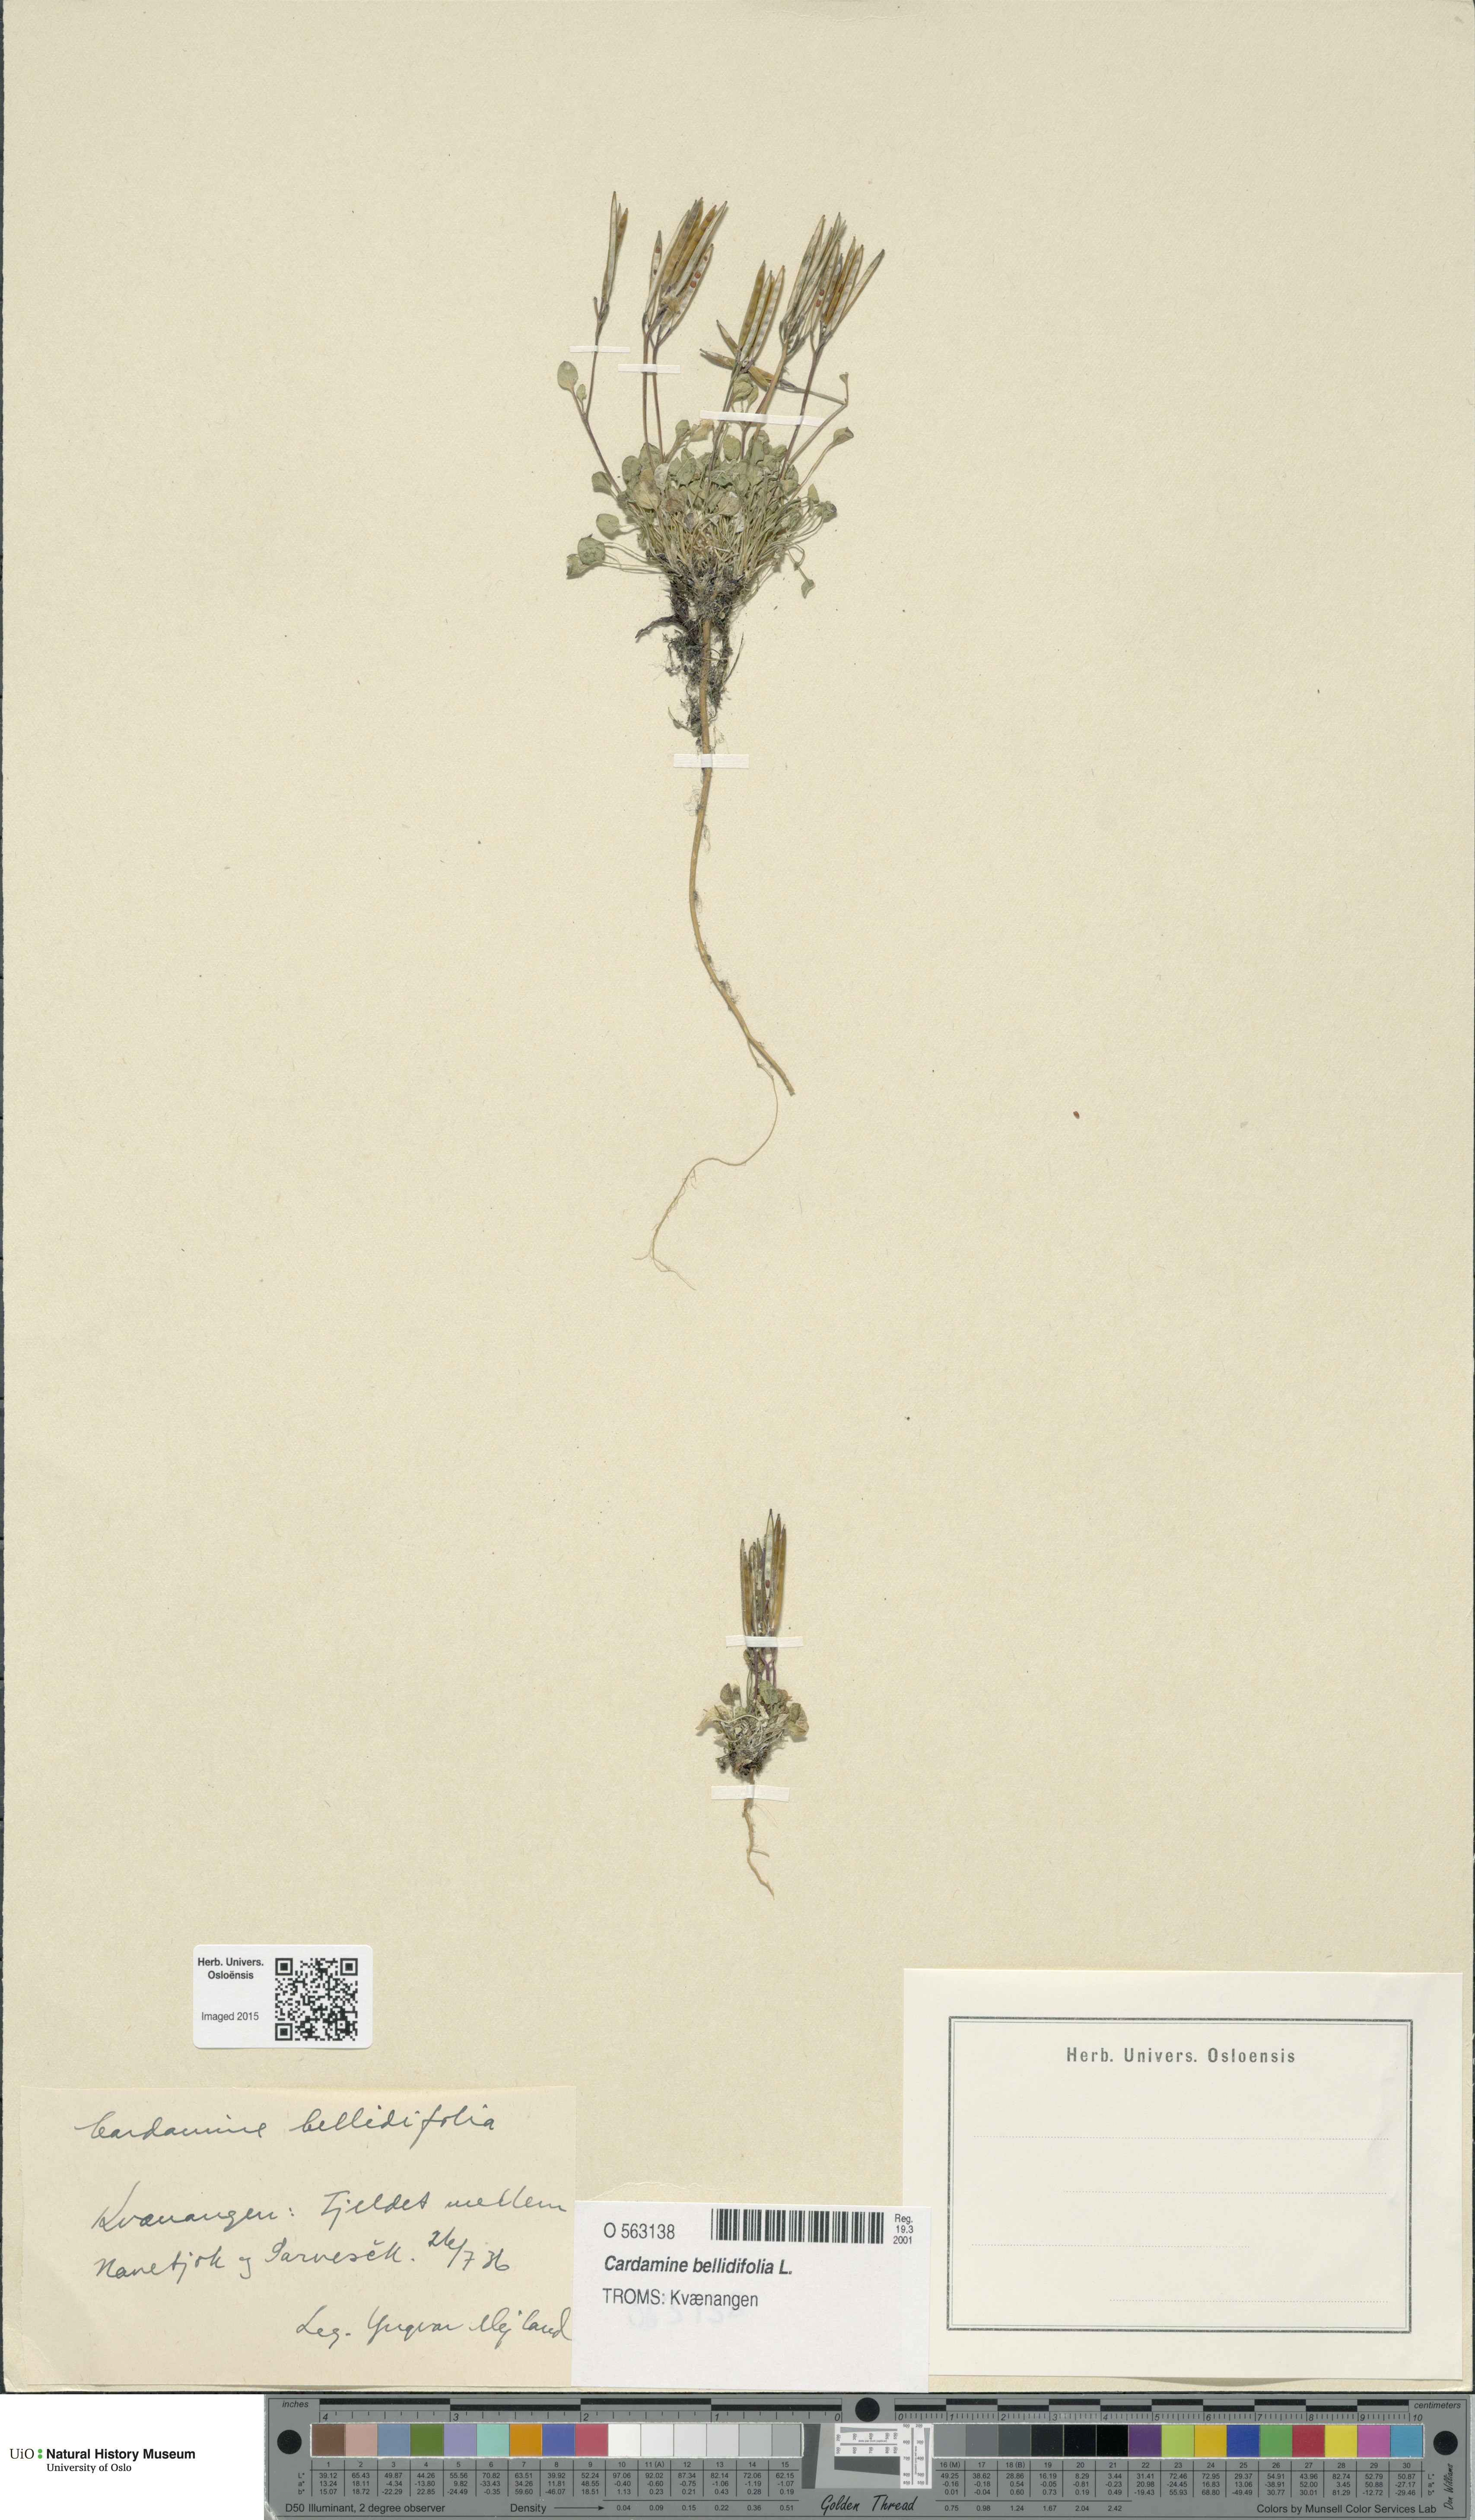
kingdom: Plantae
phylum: Tracheophyta
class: Magnoliopsida
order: Brassicales
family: Brassicaceae
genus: Cardamine
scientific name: Cardamine bellidifolia
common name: Alpine bittercress
